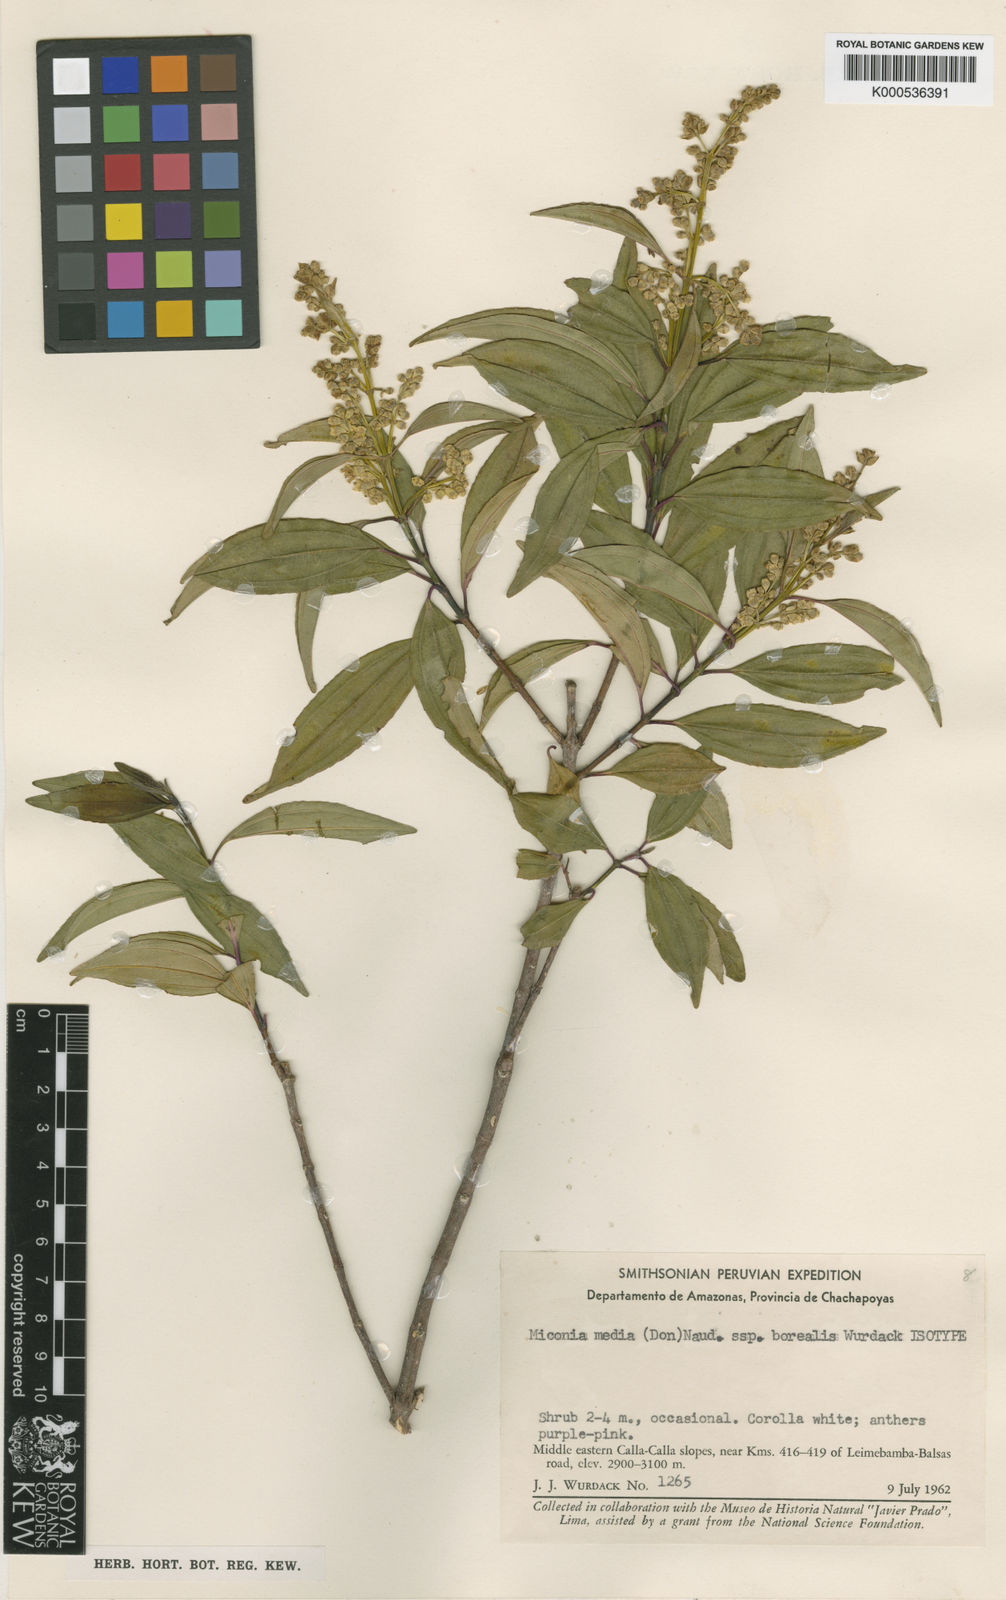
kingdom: Plantae
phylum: Tracheophyta
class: Magnoliopsida
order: Myrtales
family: Melastomataceae
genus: Miconia
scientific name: Miconia media
